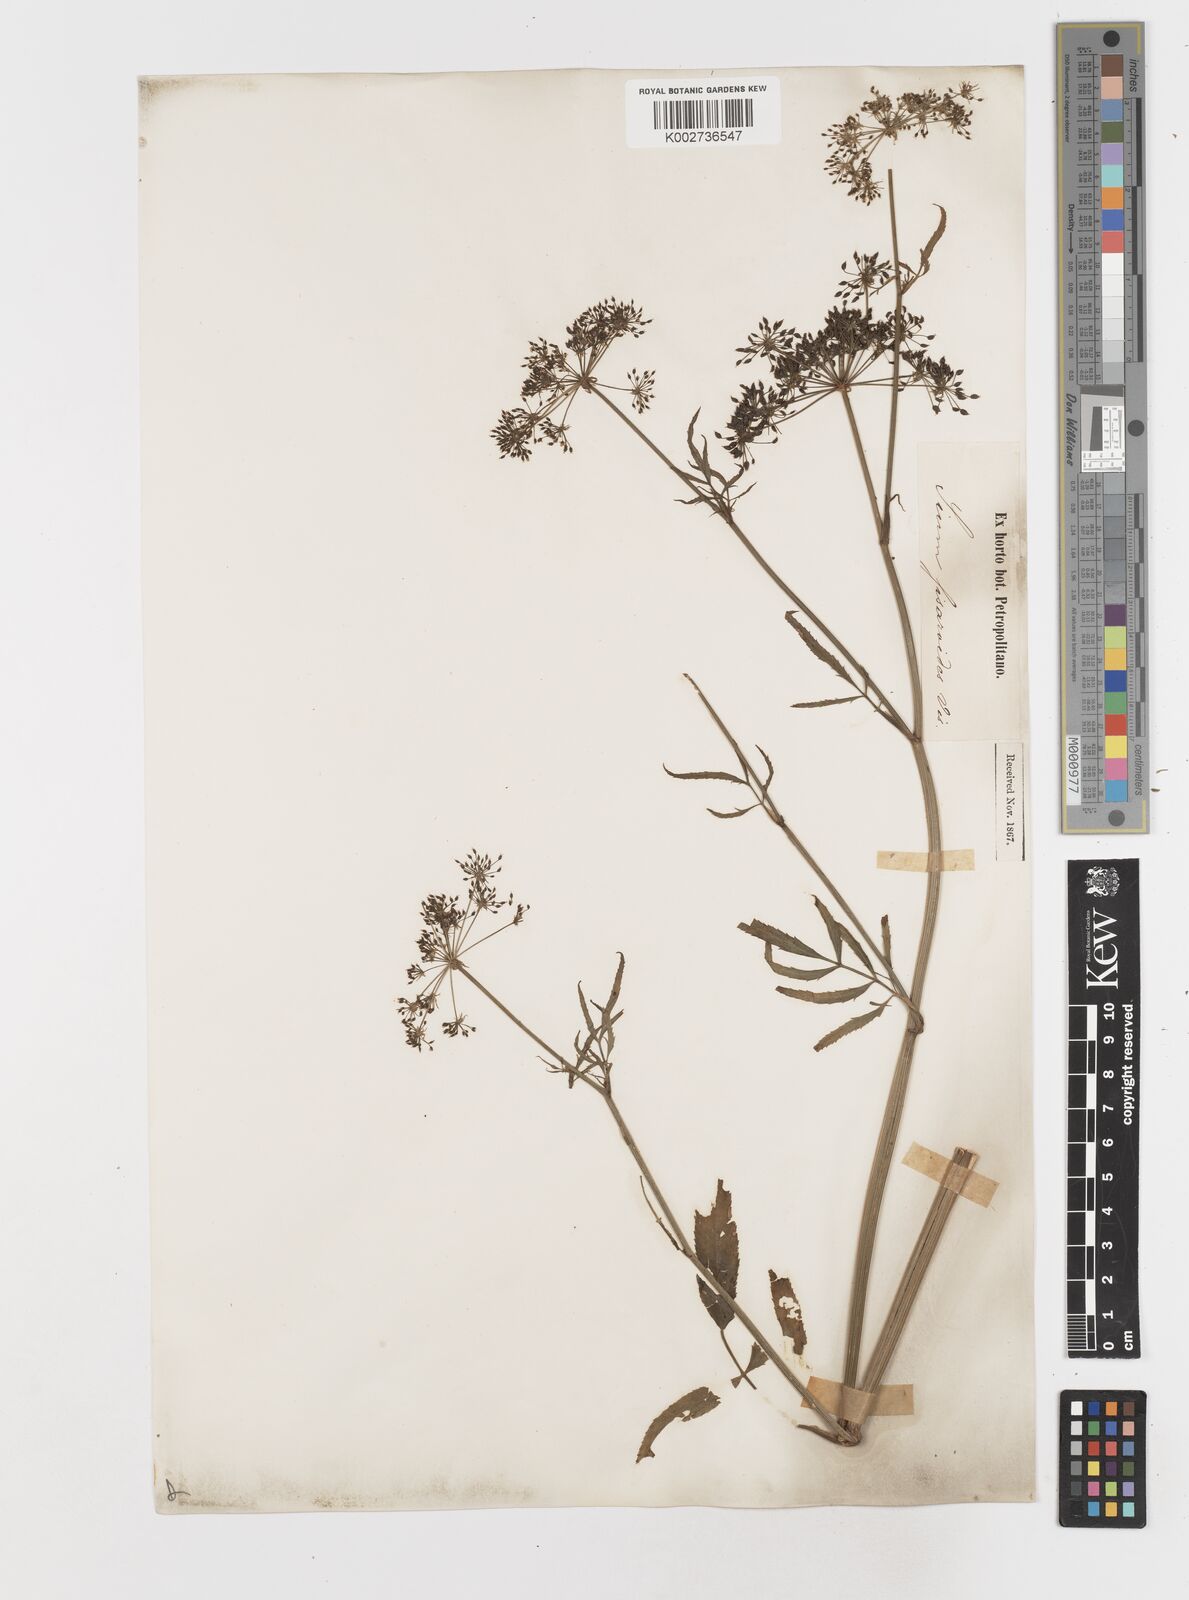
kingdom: Plantae
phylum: Tracheophyta
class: Magnoliopsida
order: Apiales
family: Apiaceae
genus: Sium
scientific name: Sium sisarum
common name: Skirret
